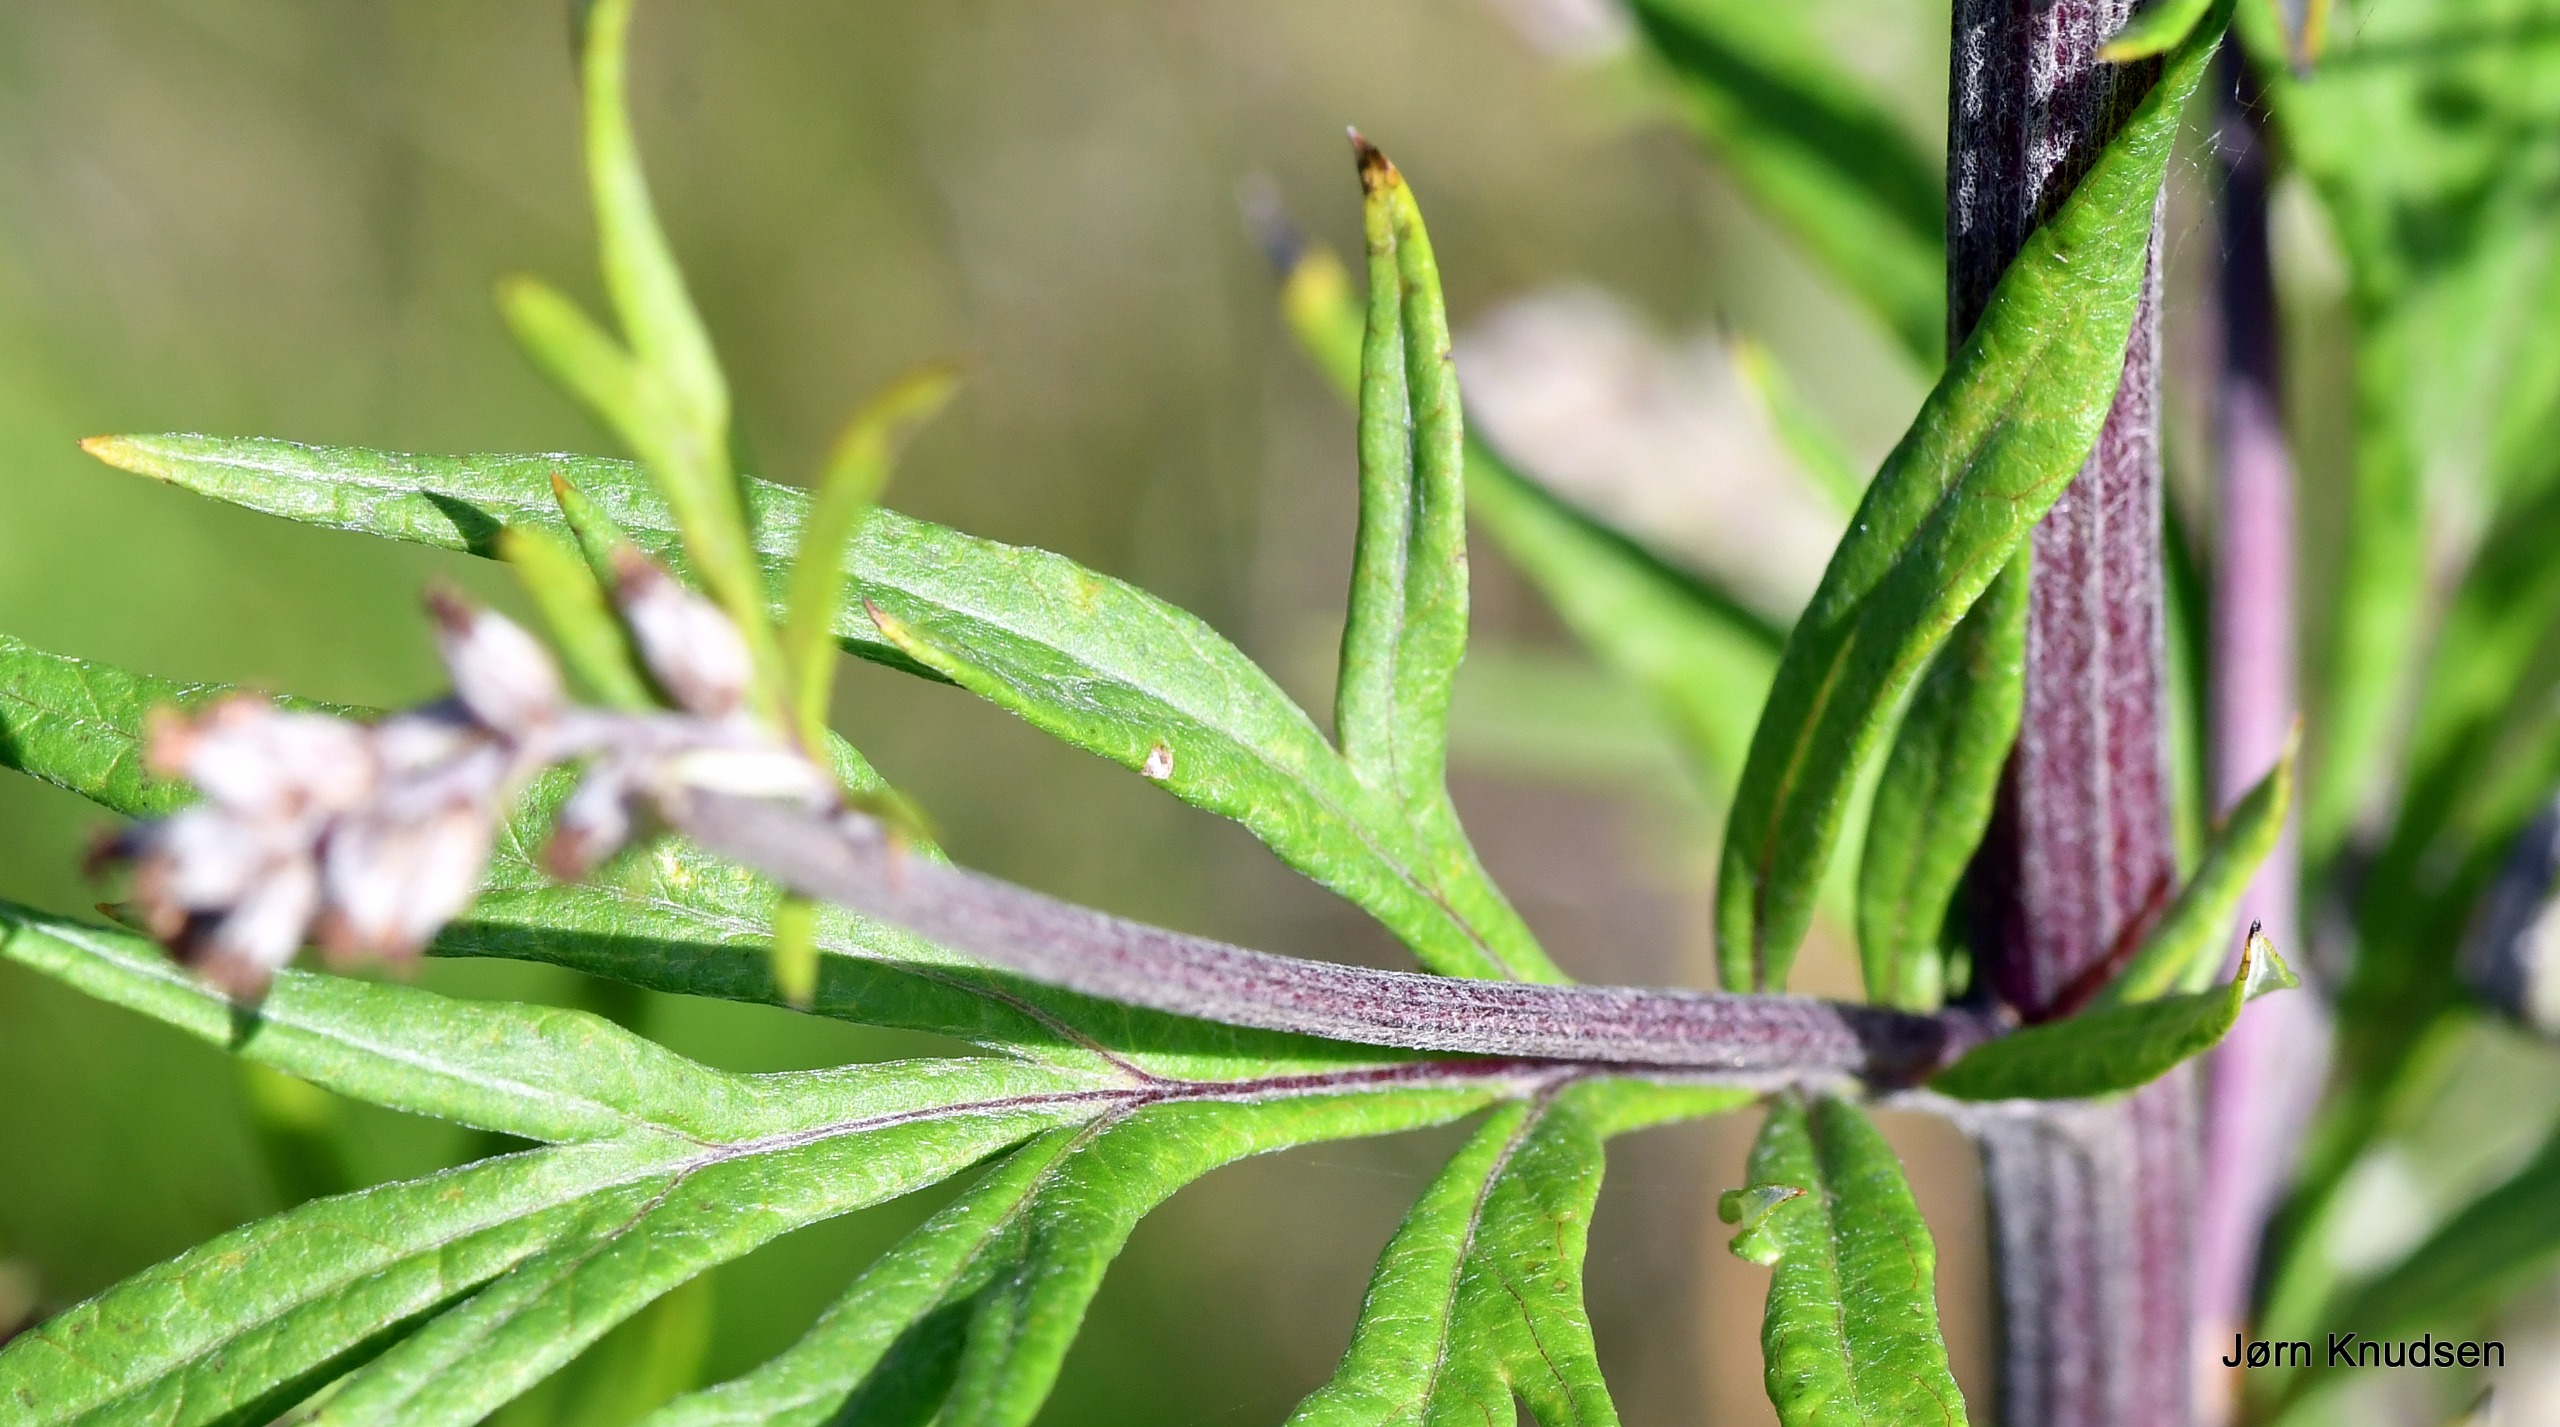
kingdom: Plantae
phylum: Tracheophyta
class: Magnoliopsida
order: Asterales
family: Asteraceae
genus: Artemisia
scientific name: Artemisia vulgaris
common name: Grå-bynke
